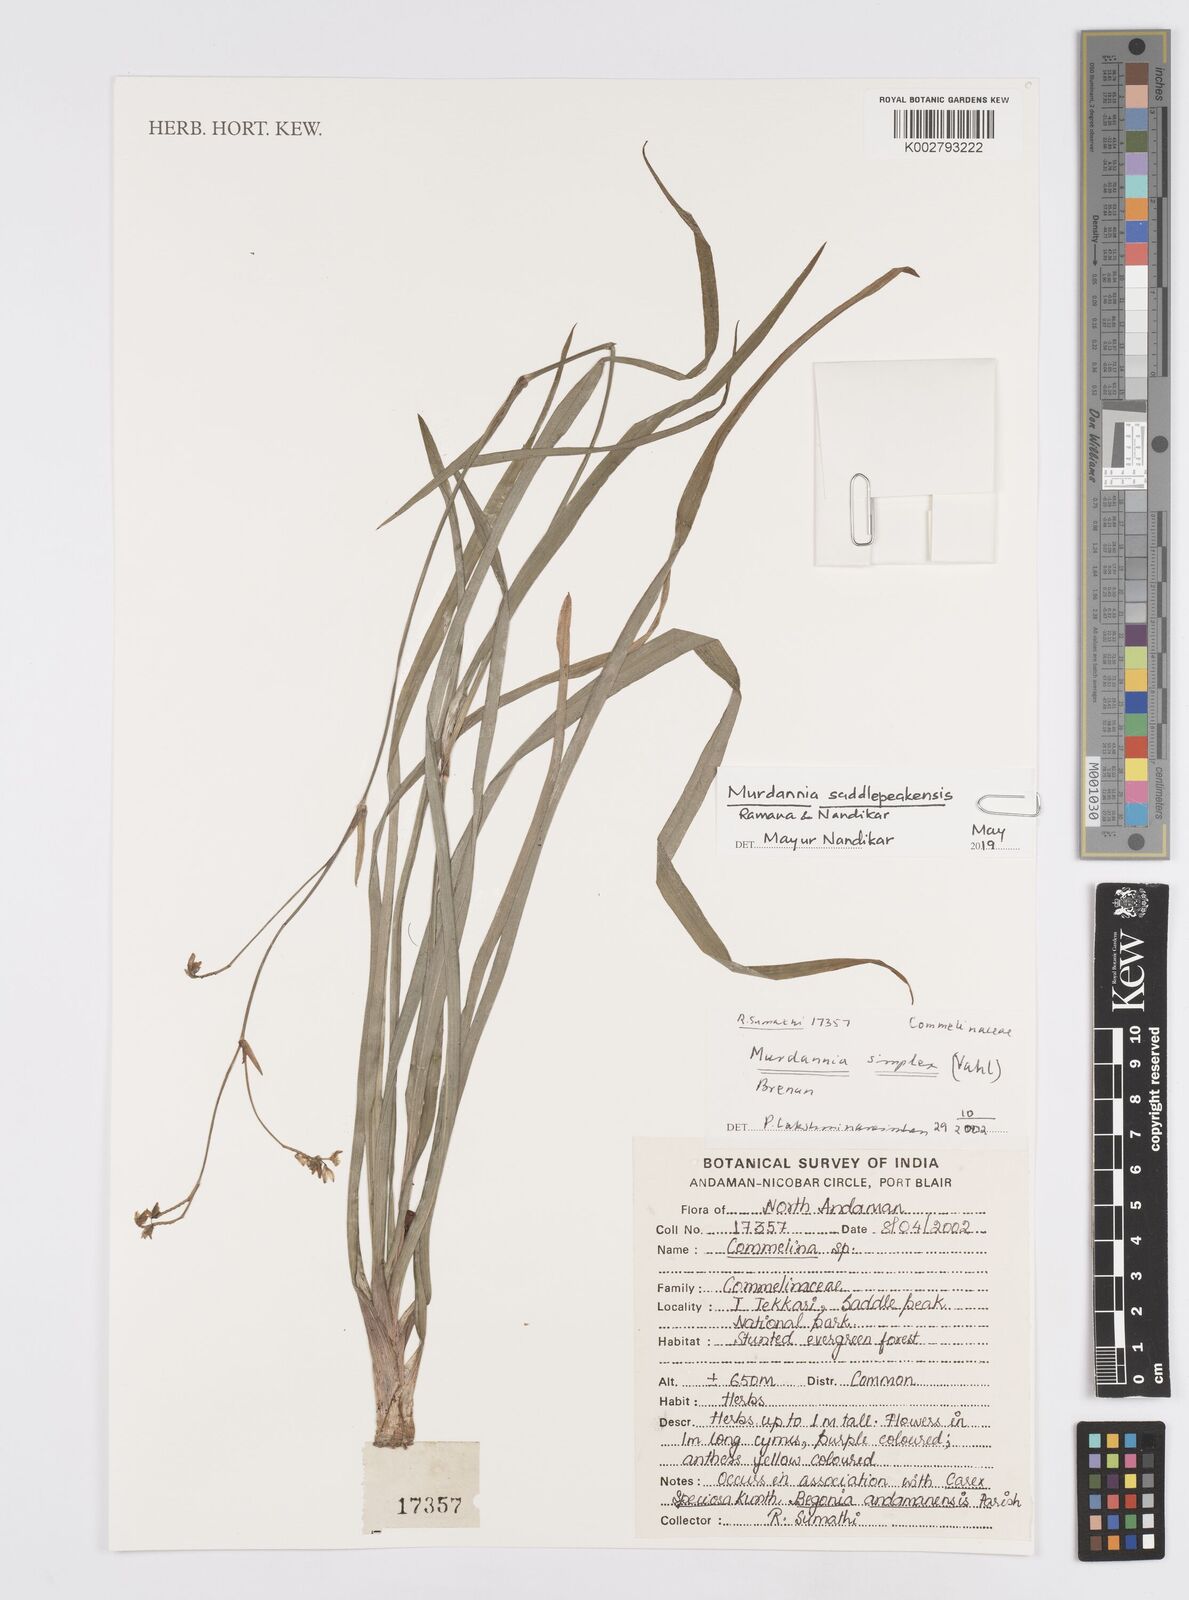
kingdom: Plantae
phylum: Tracheophyta
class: Liliopsida
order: Commelinales
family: Commelinaceae
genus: Murdannia
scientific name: Murdannia simplex
